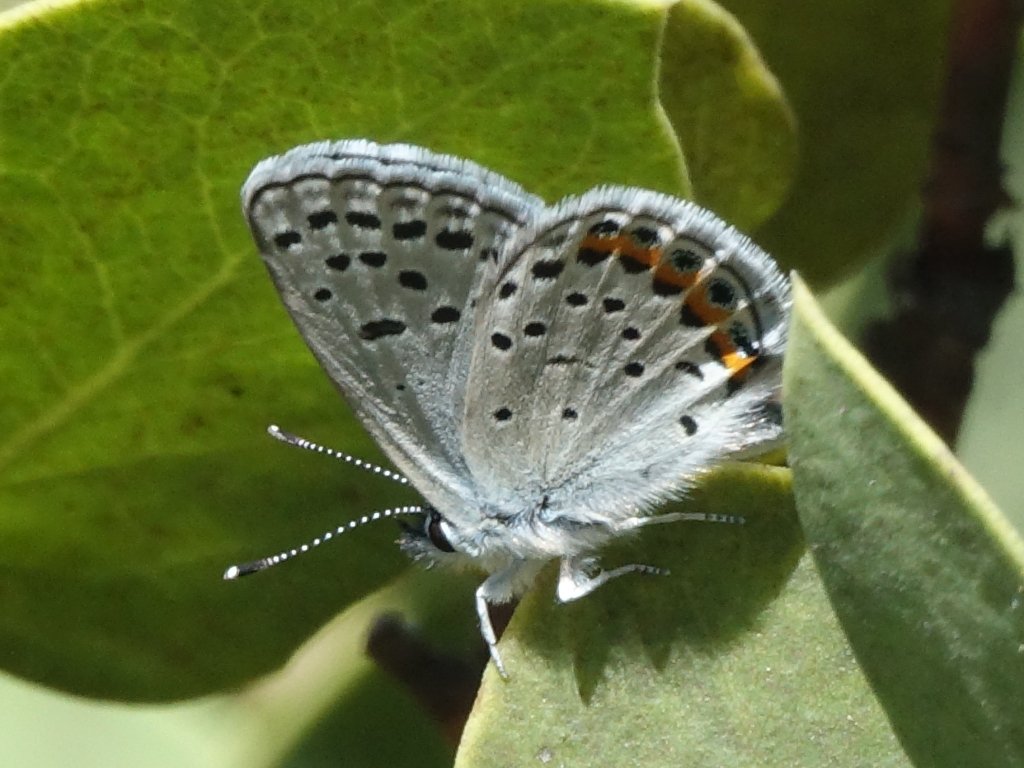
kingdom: Animalia
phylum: Arthropoda
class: Insecta
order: Lepidoptera
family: Lycaenidae
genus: Plebejus
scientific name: Plebejus acmon
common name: Acmon Blue
